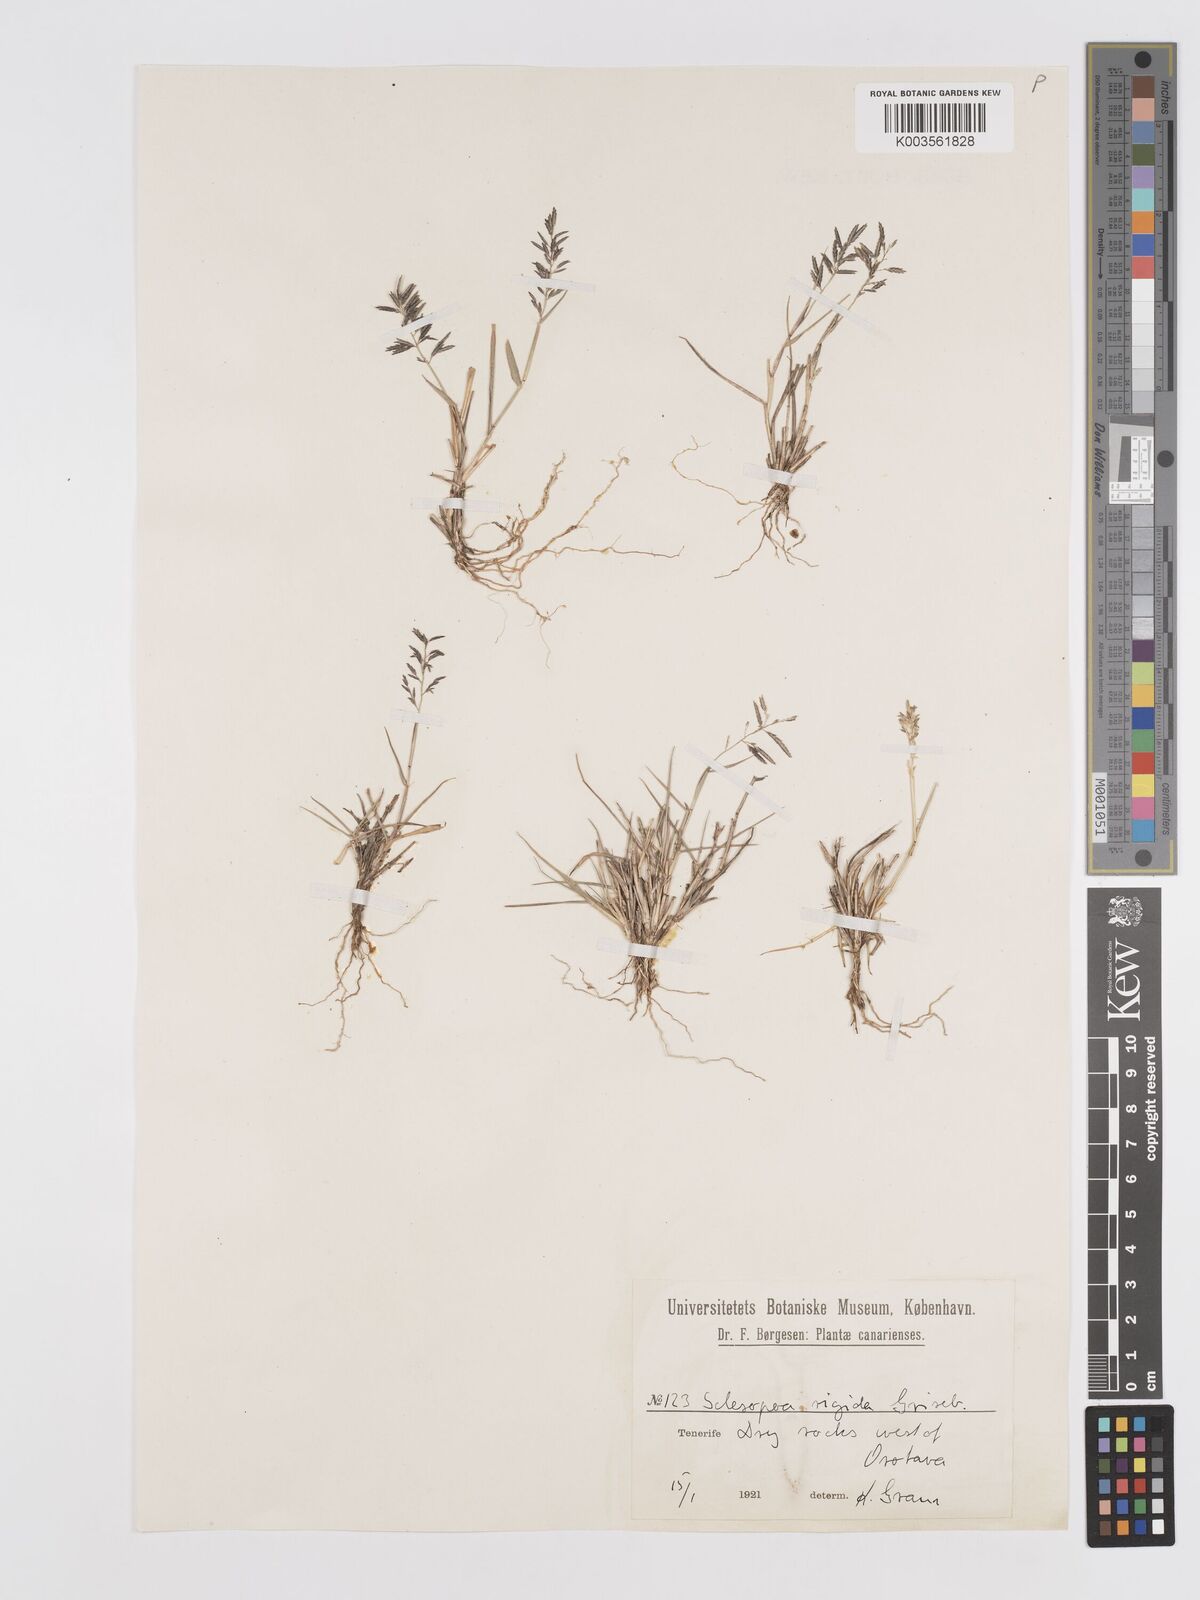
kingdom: Plantae
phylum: Tracheophyta
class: Liliopsida
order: Poales
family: Poaceae
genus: Eragrostis
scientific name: Eragrostis barrelieri
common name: Mediterranean lovegrass
